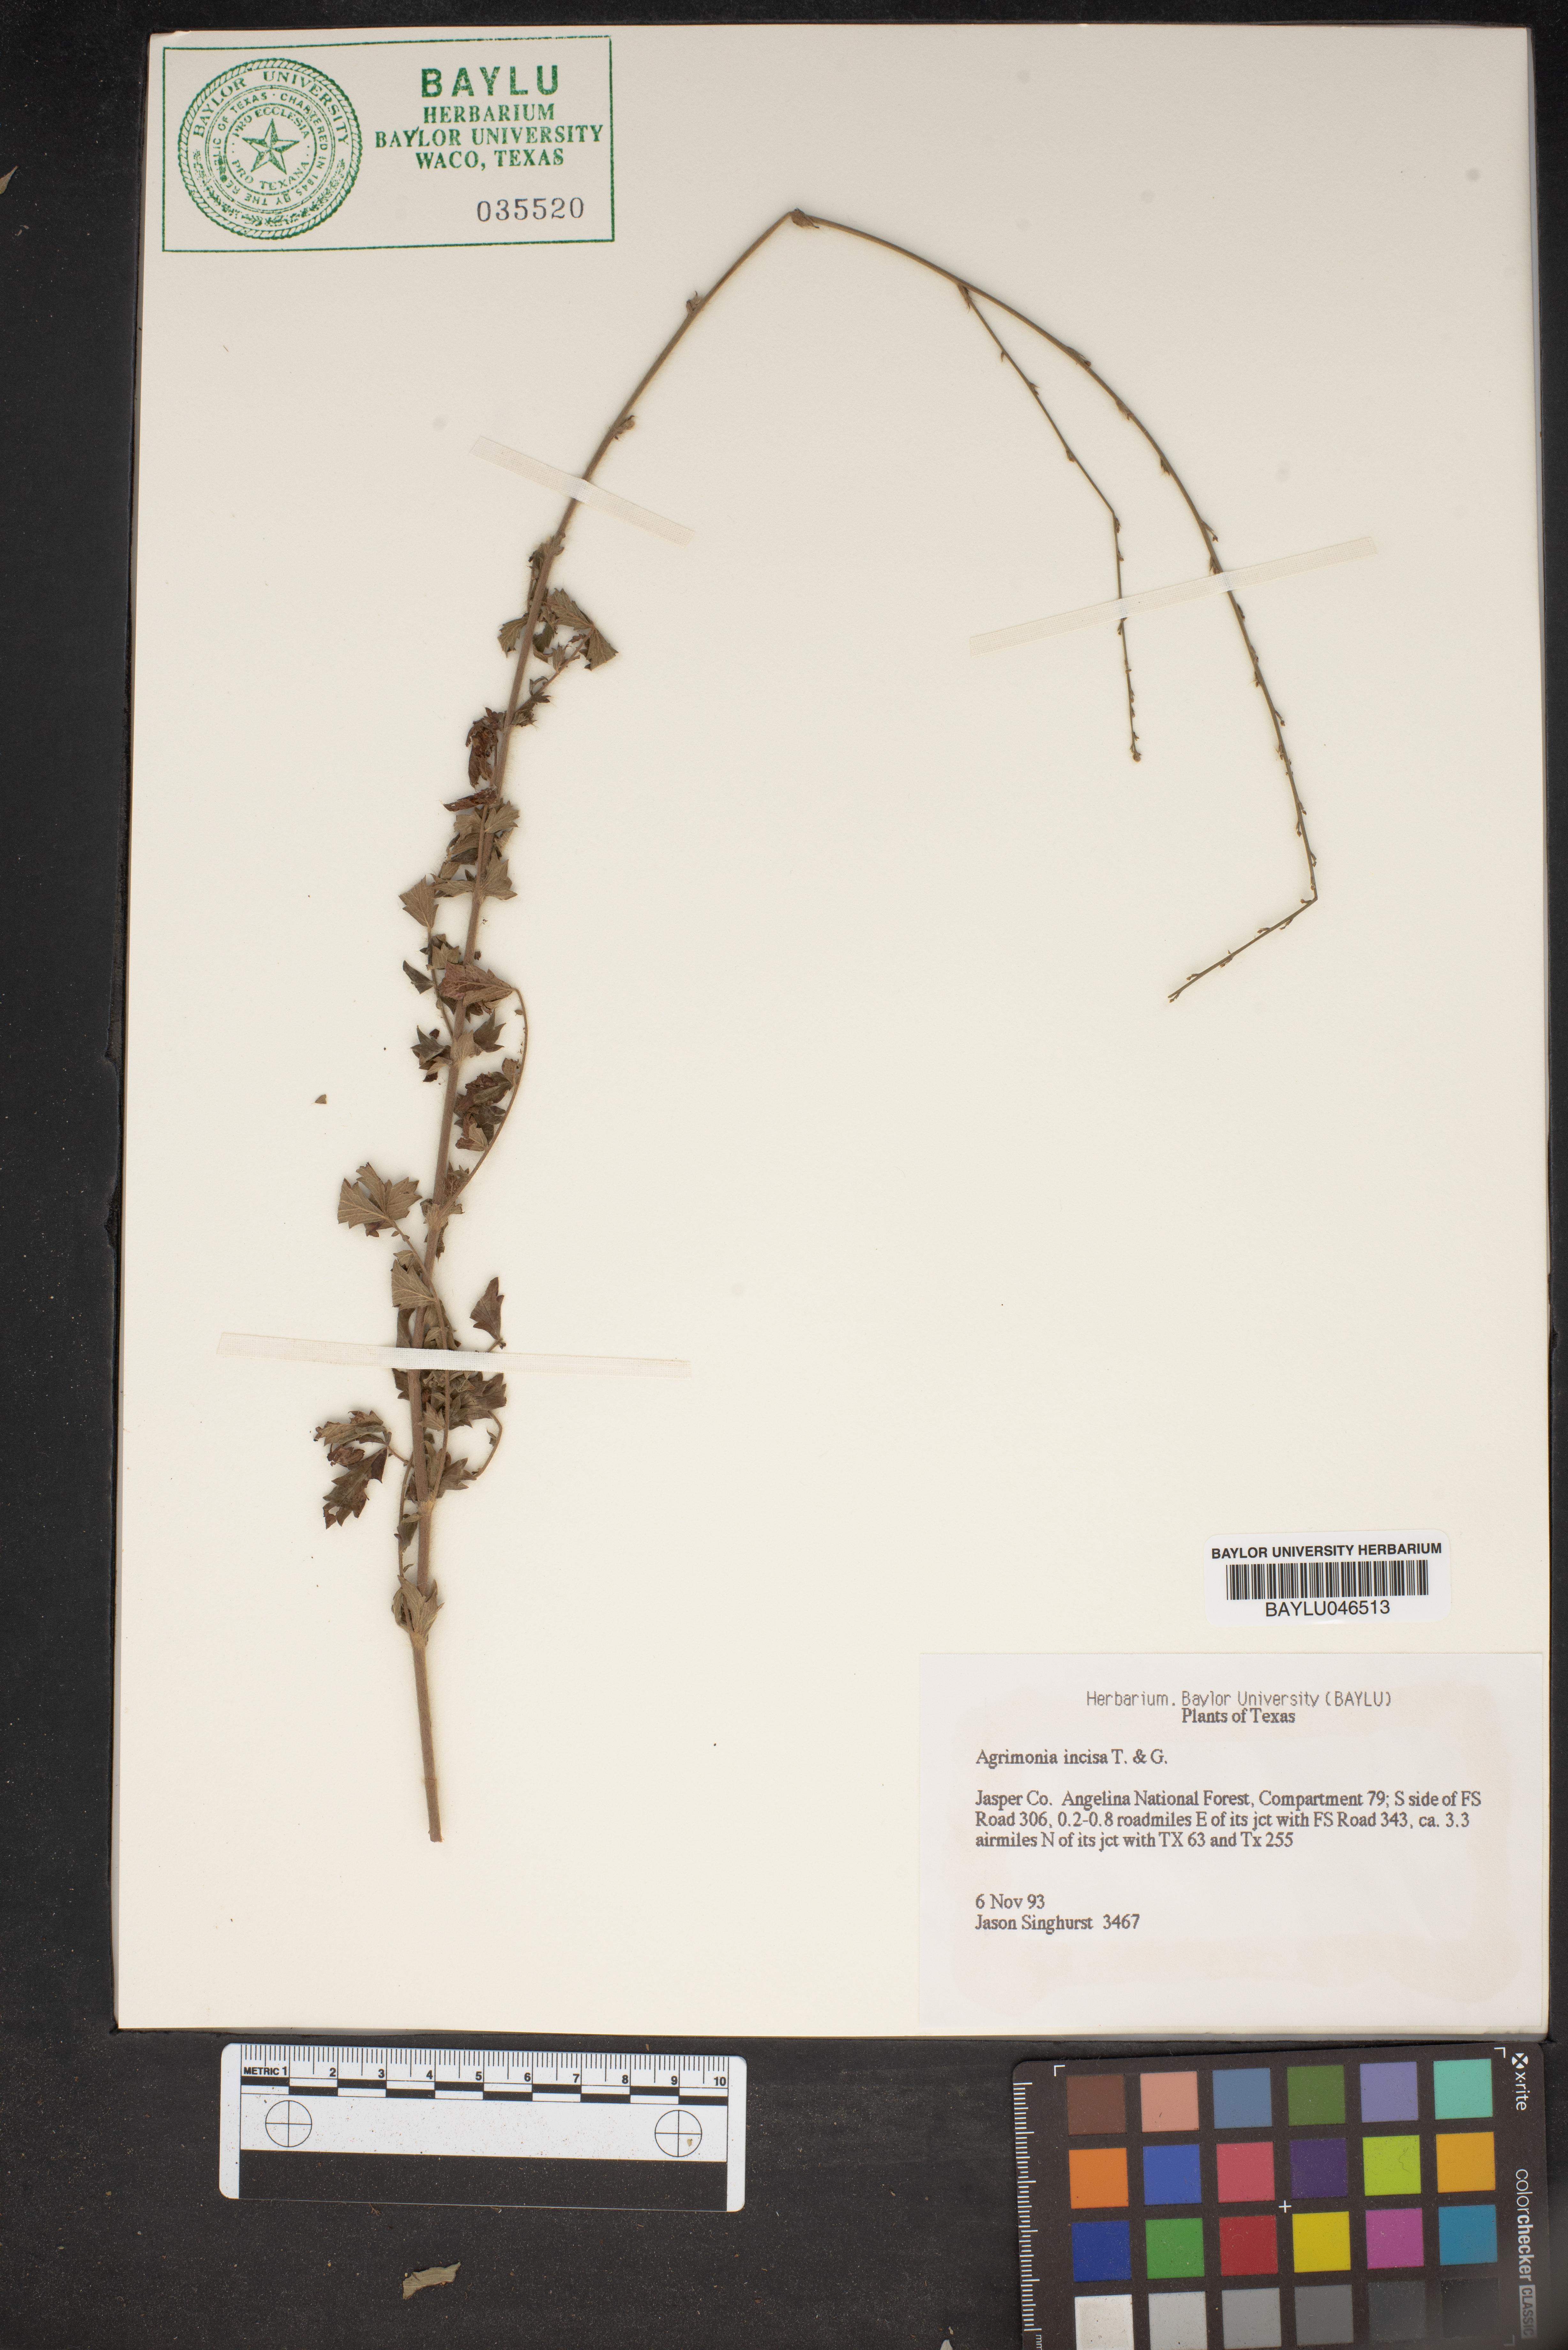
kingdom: Plantae
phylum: Tracheophyta
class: Magnoliopsida
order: Rosales
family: Rosaceae
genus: Agrimonia
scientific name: Agrimonia incisa
